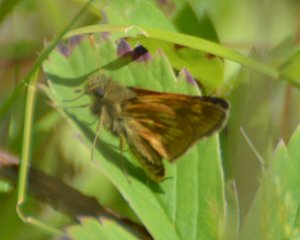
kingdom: Animalia
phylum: Arthropoda
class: Insecta
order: Lepidoptera
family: Hesperiidae
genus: Polites
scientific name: Polites
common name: Long Dash Skipper
